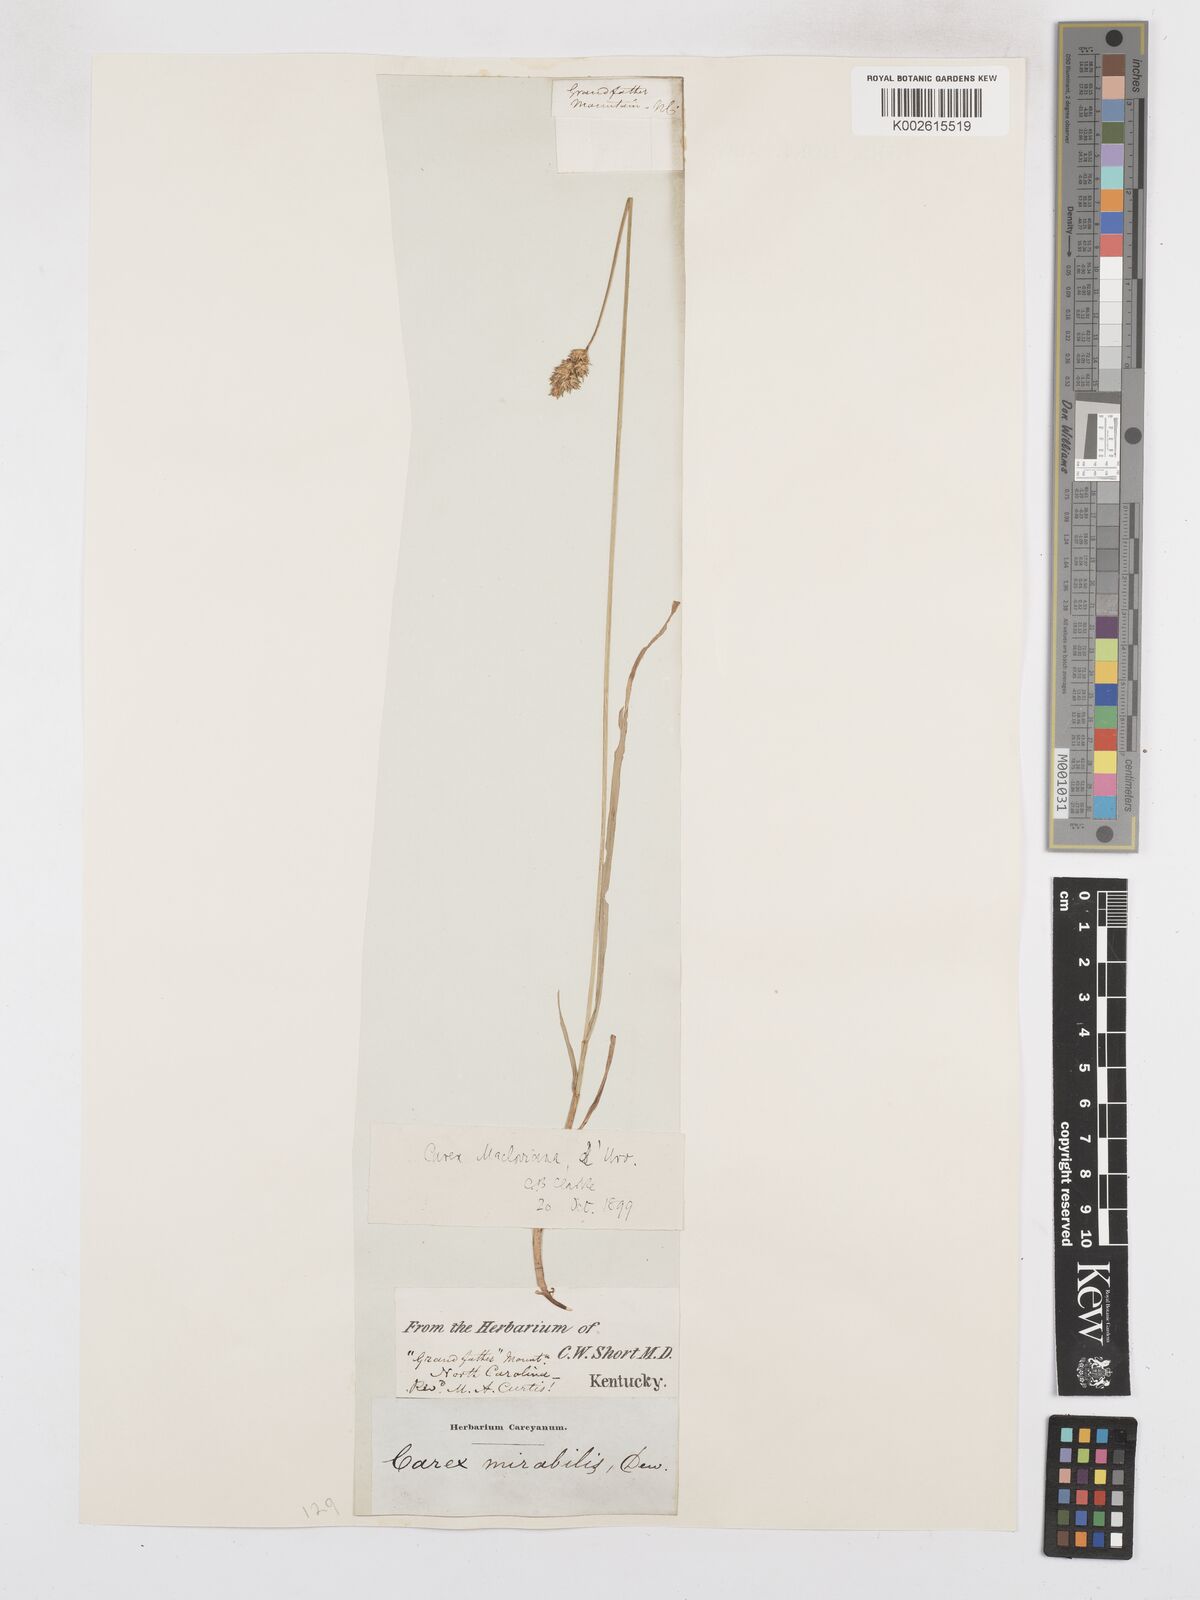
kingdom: Plantae
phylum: Tracheophyta
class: Liliopsida
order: Poales
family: Cyperaceae
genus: Carex
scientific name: Carex macloviana
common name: Falkland island sedge
